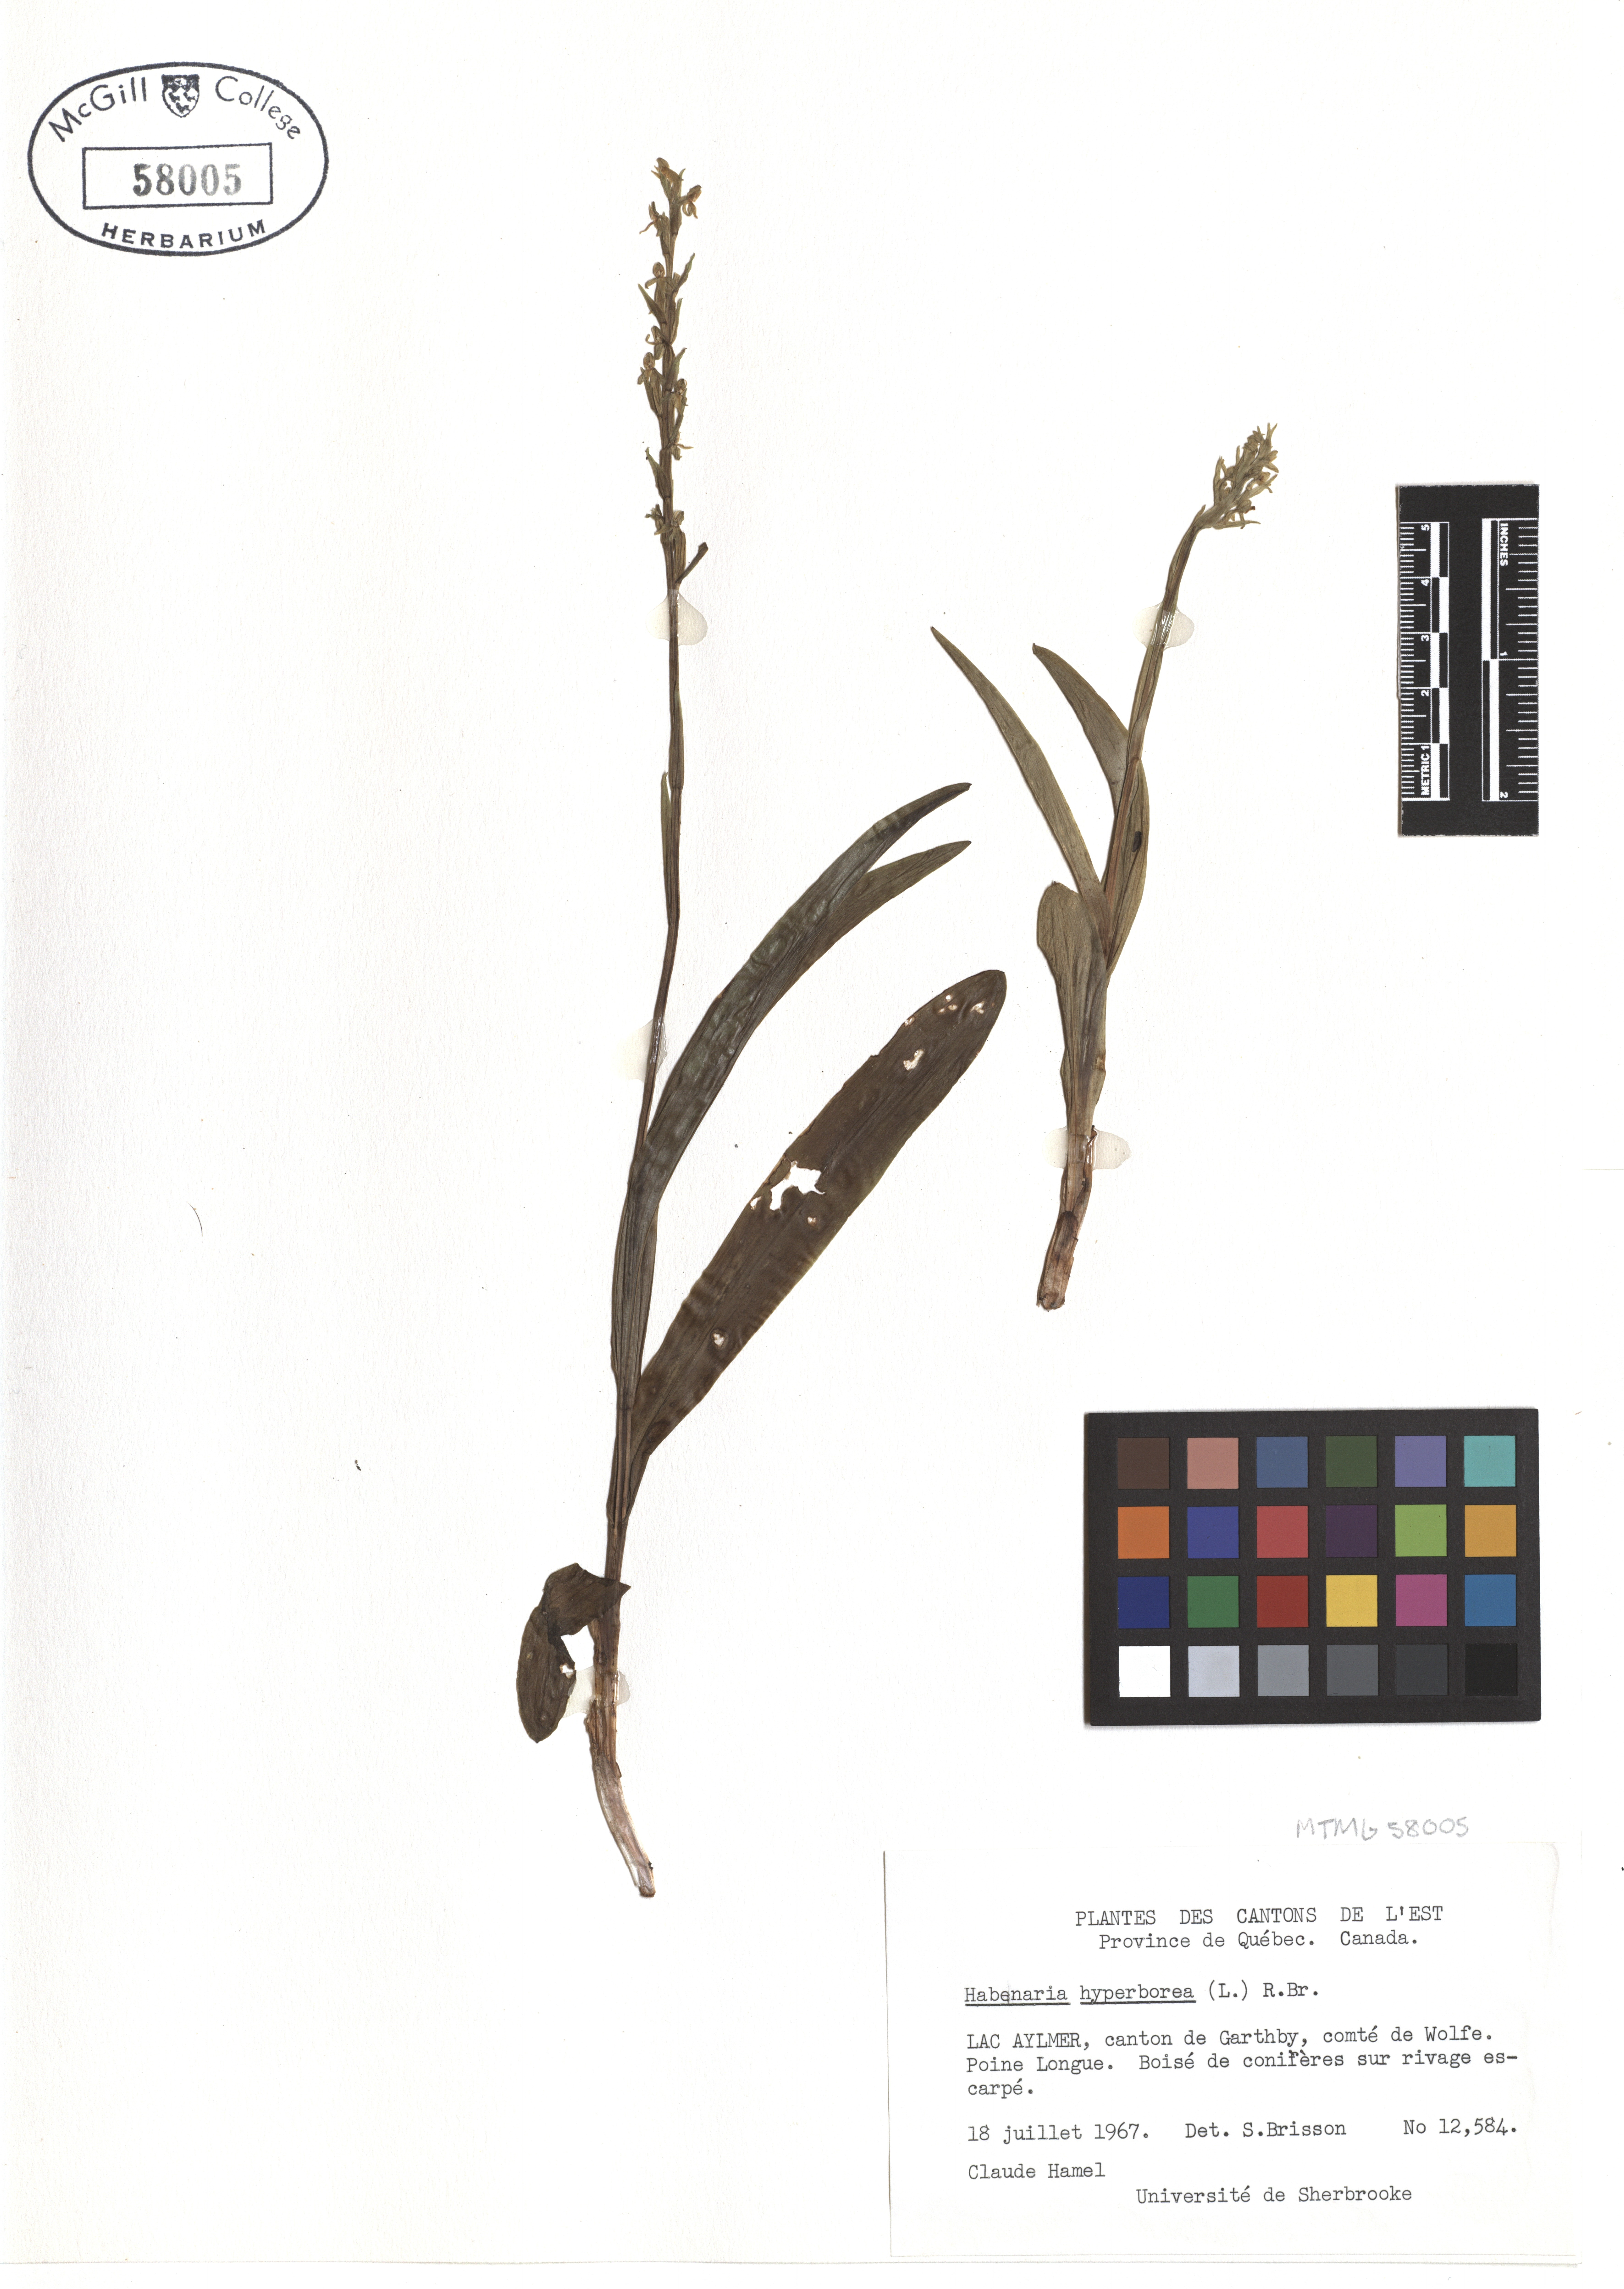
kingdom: Plantae
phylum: Tracheophyta
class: Liliopsida
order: Asparagales
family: Orchidaceae
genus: Platanthera
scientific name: Platanthera hyperborea
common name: Northern green orchid
